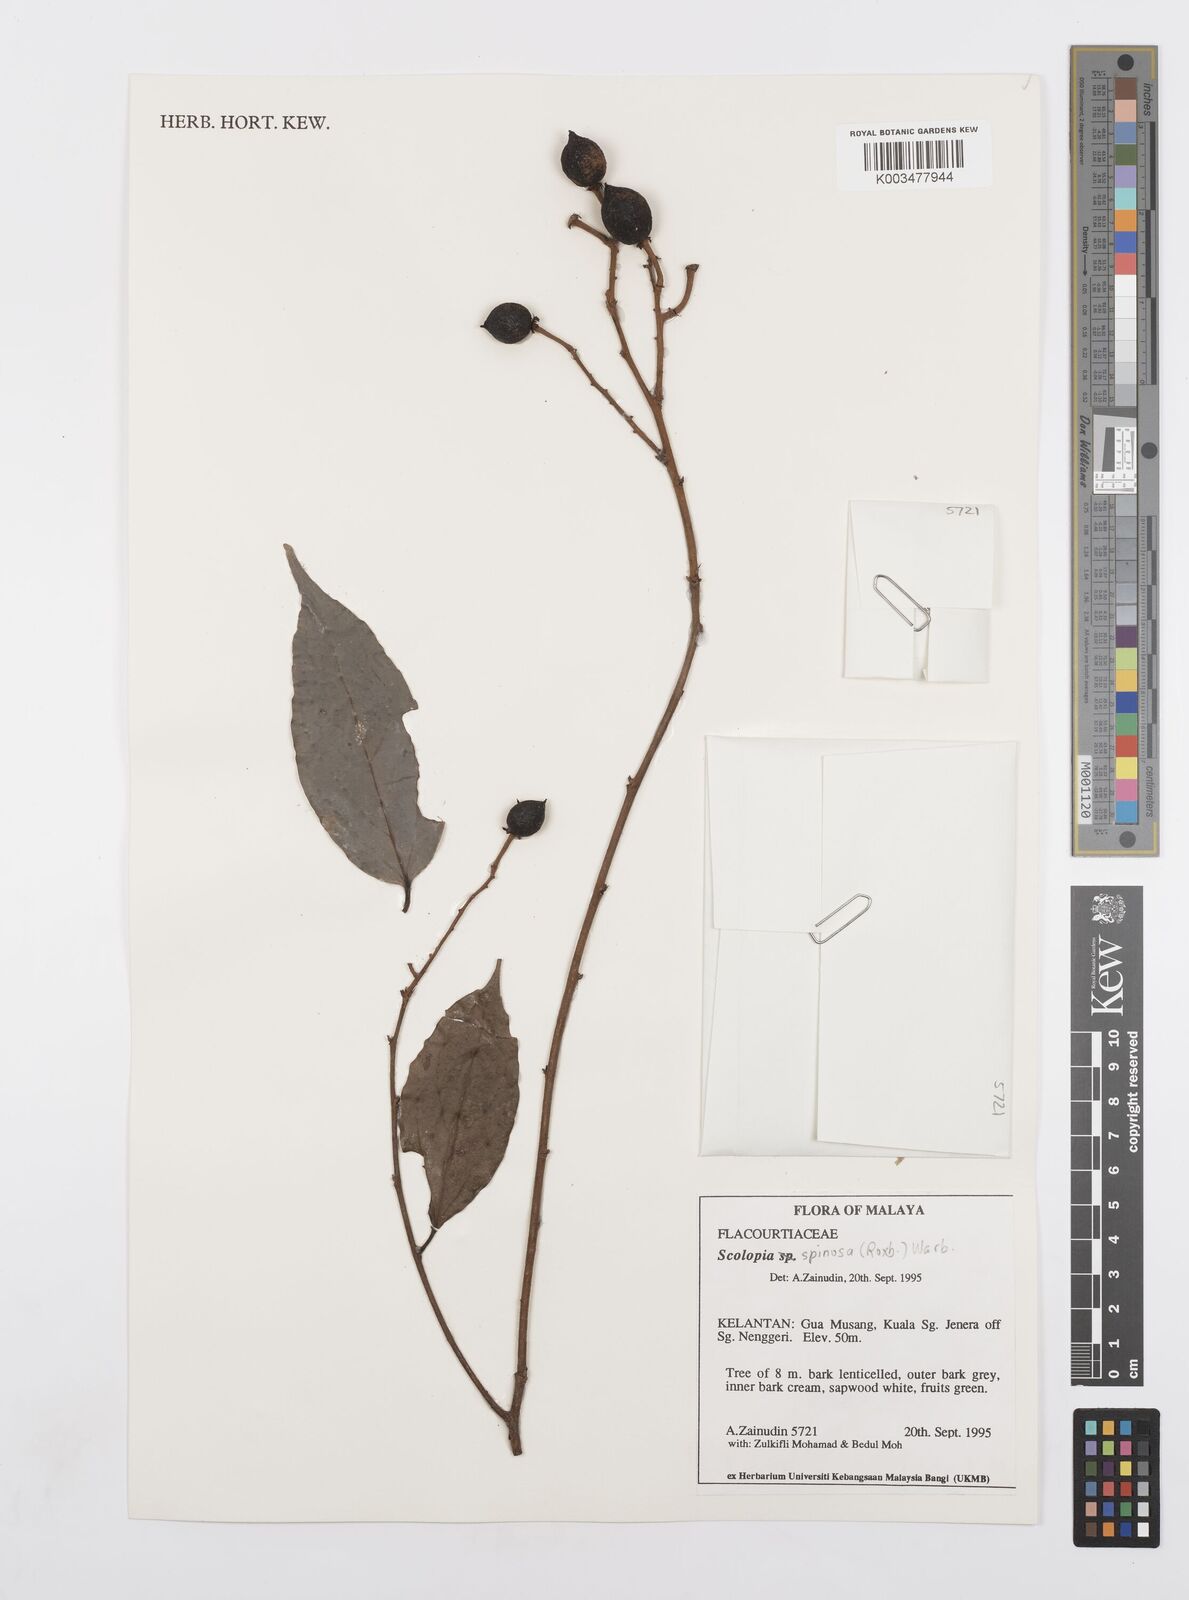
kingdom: Plantae
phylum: Tracheophyta
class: Magnoliopsida
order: Malpighiales
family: Salicaceae
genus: Scolopia
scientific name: Scolopia spinosa
